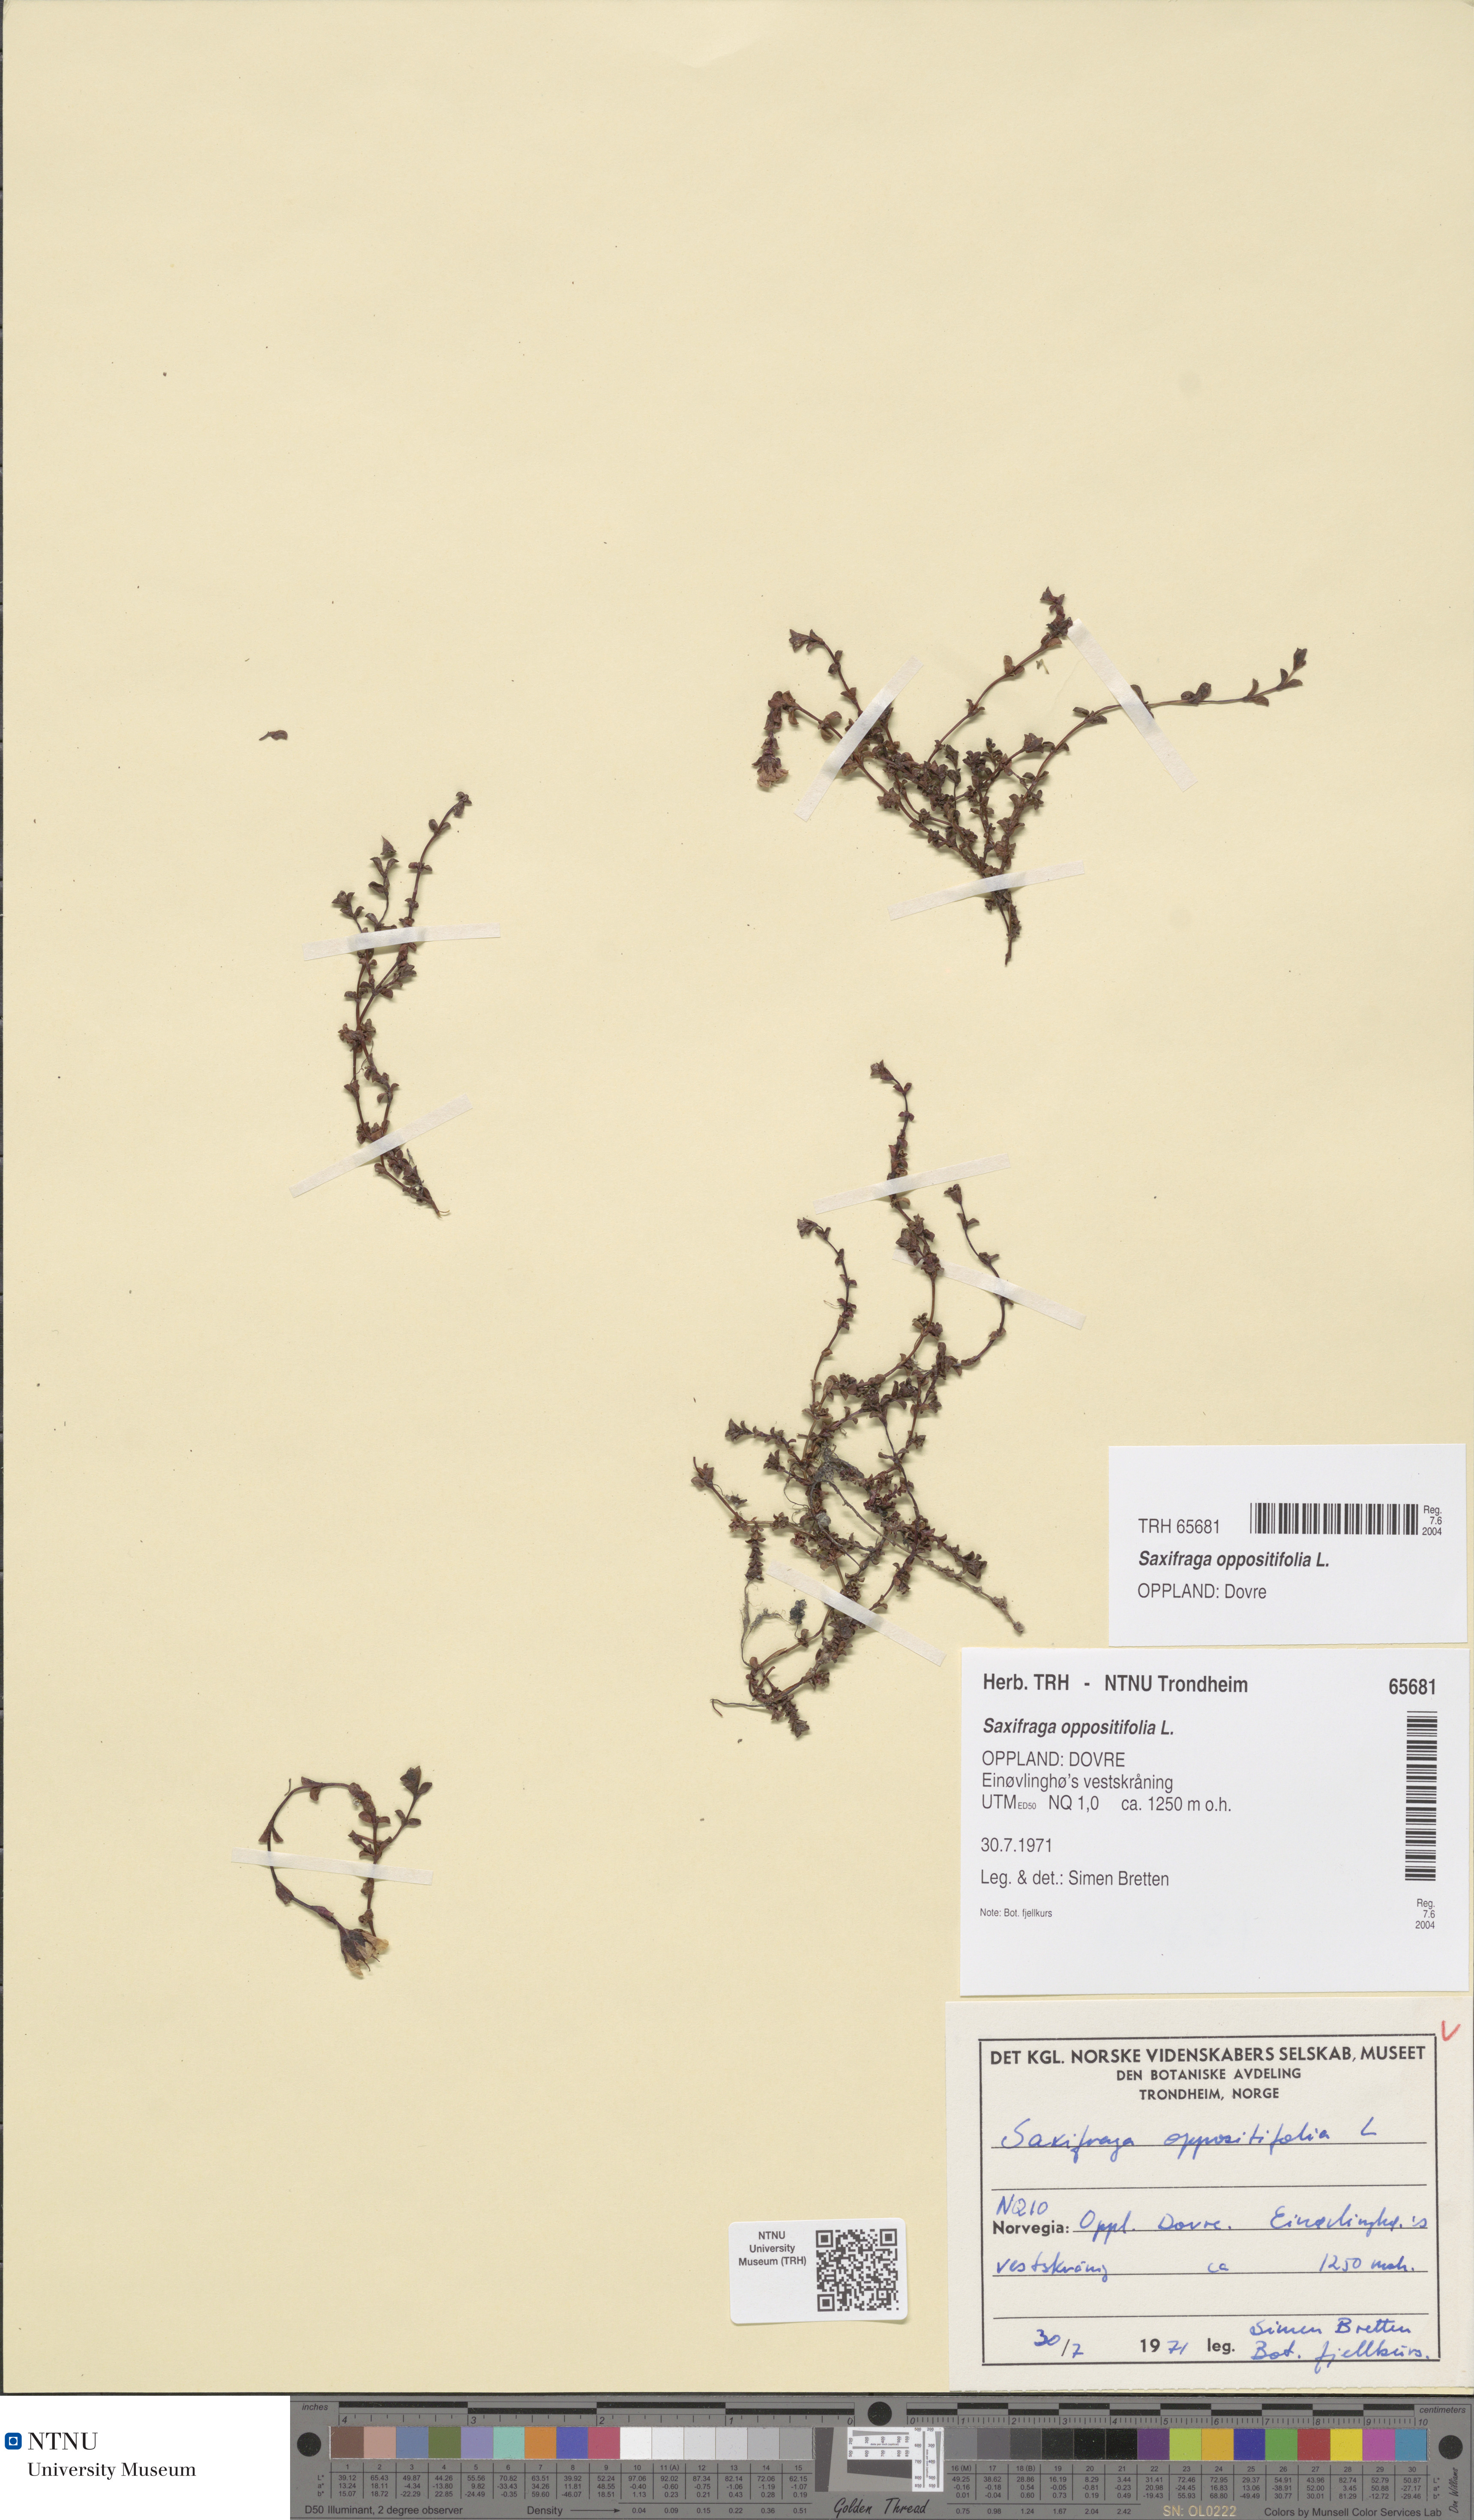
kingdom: Plantae
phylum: Tracheophyta
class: Magnoliopsida
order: Saxifragales
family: Saxifragaceae
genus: Saxifraga
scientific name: Saxifraga oppositifolia
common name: Purple saxifrage
